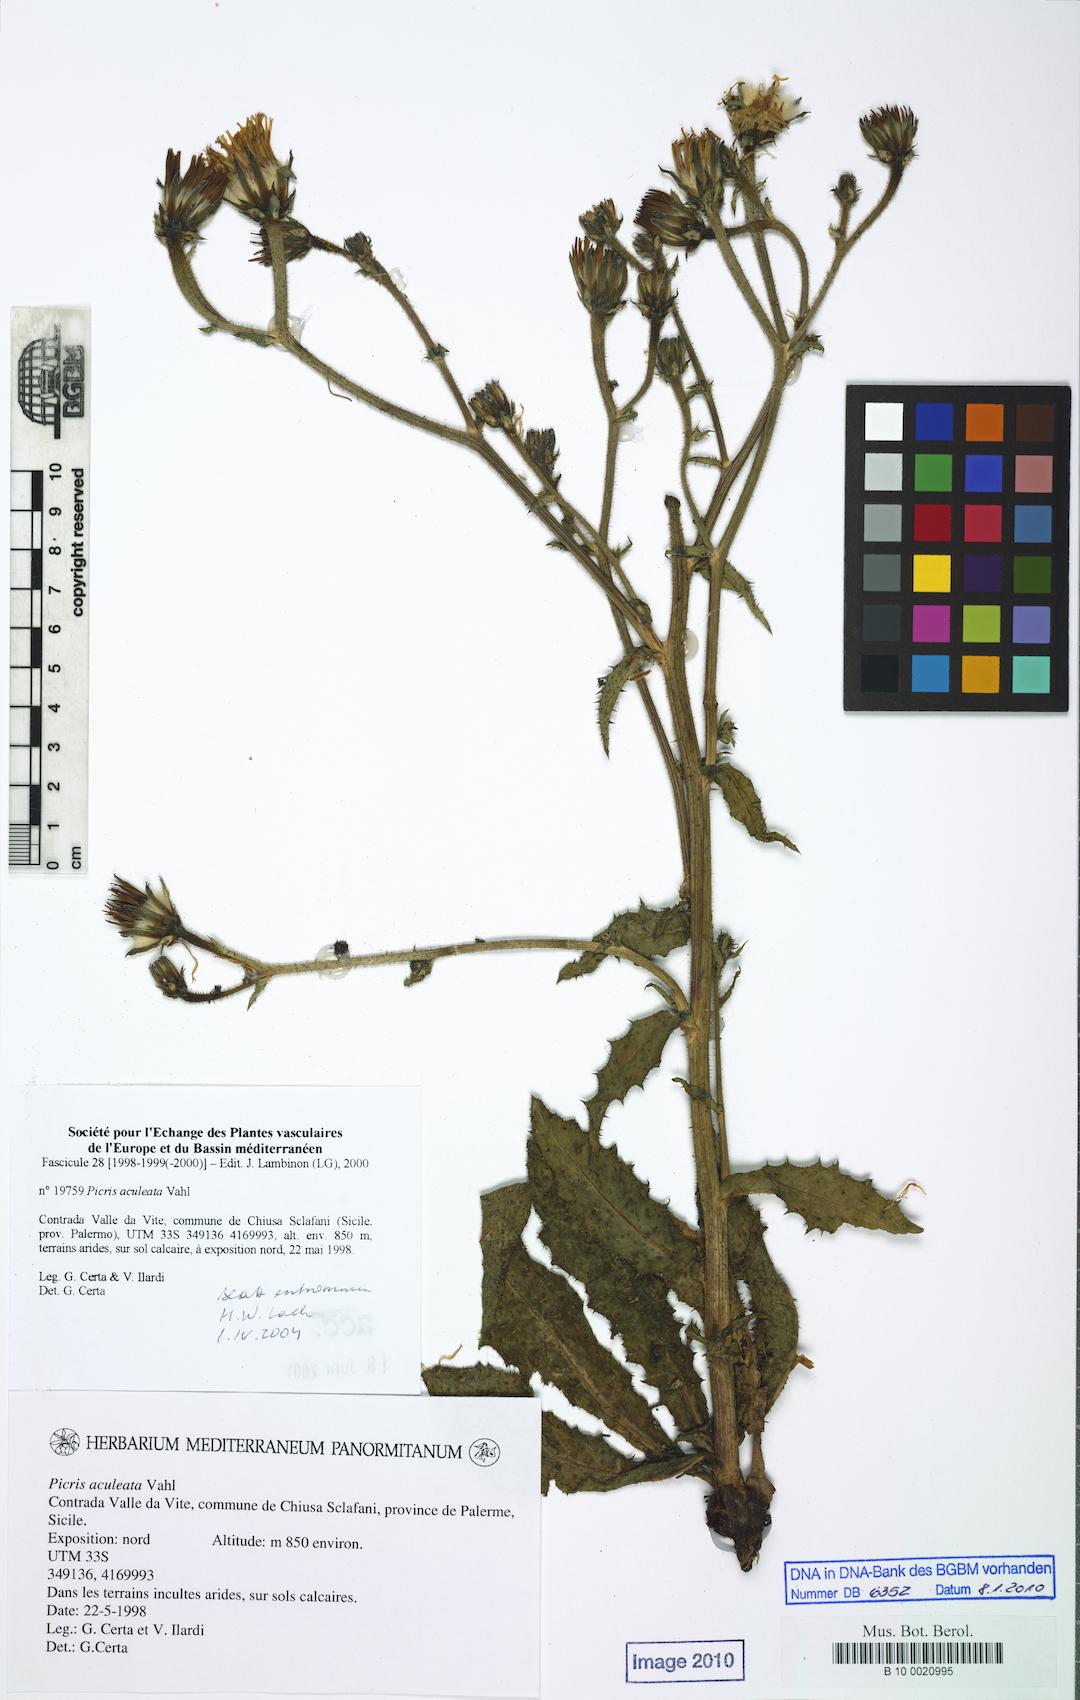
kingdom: Plantae
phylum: Tracheophyta
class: Magnoliopsida
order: Asterales
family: Asteraceae
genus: Helminthotheca
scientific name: Helminthotheca aculeata
